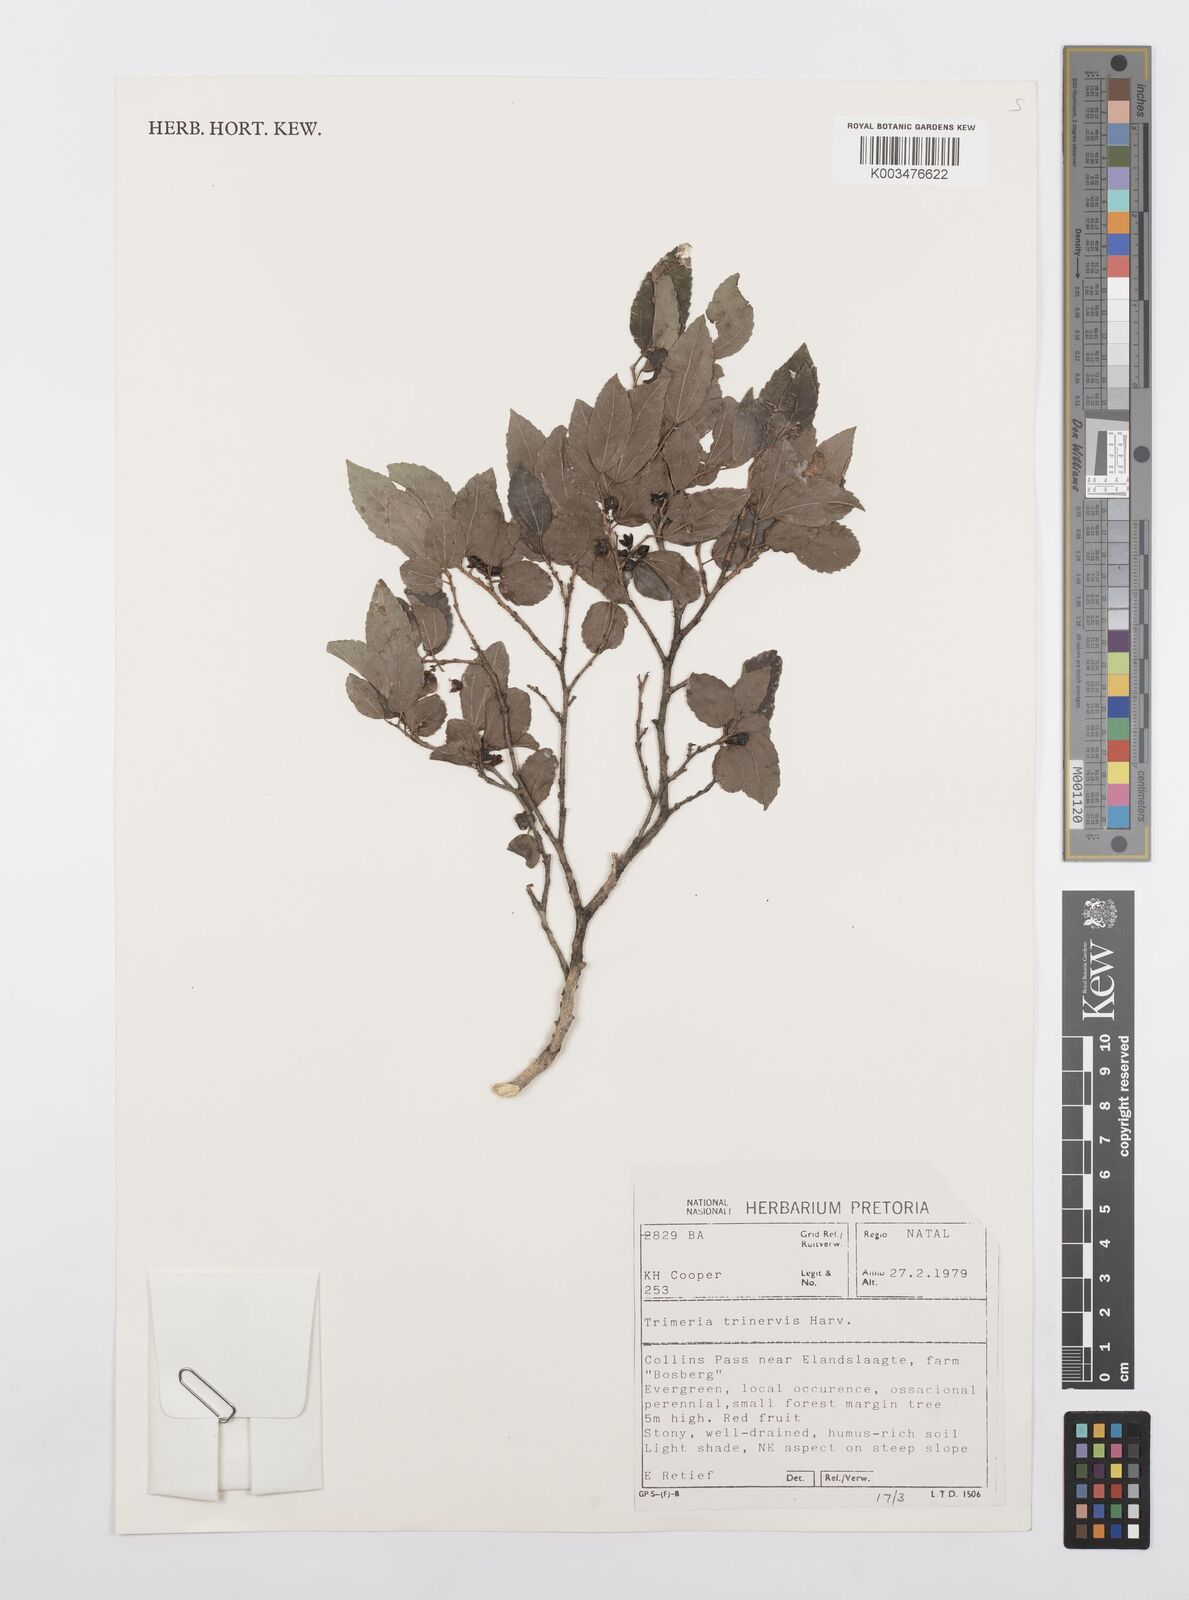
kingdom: Plantae
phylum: Tracheophyta
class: Magnoliopsida
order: Malpighiales
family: Salicaceae
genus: Trimeria
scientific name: Trimeria trinervis
